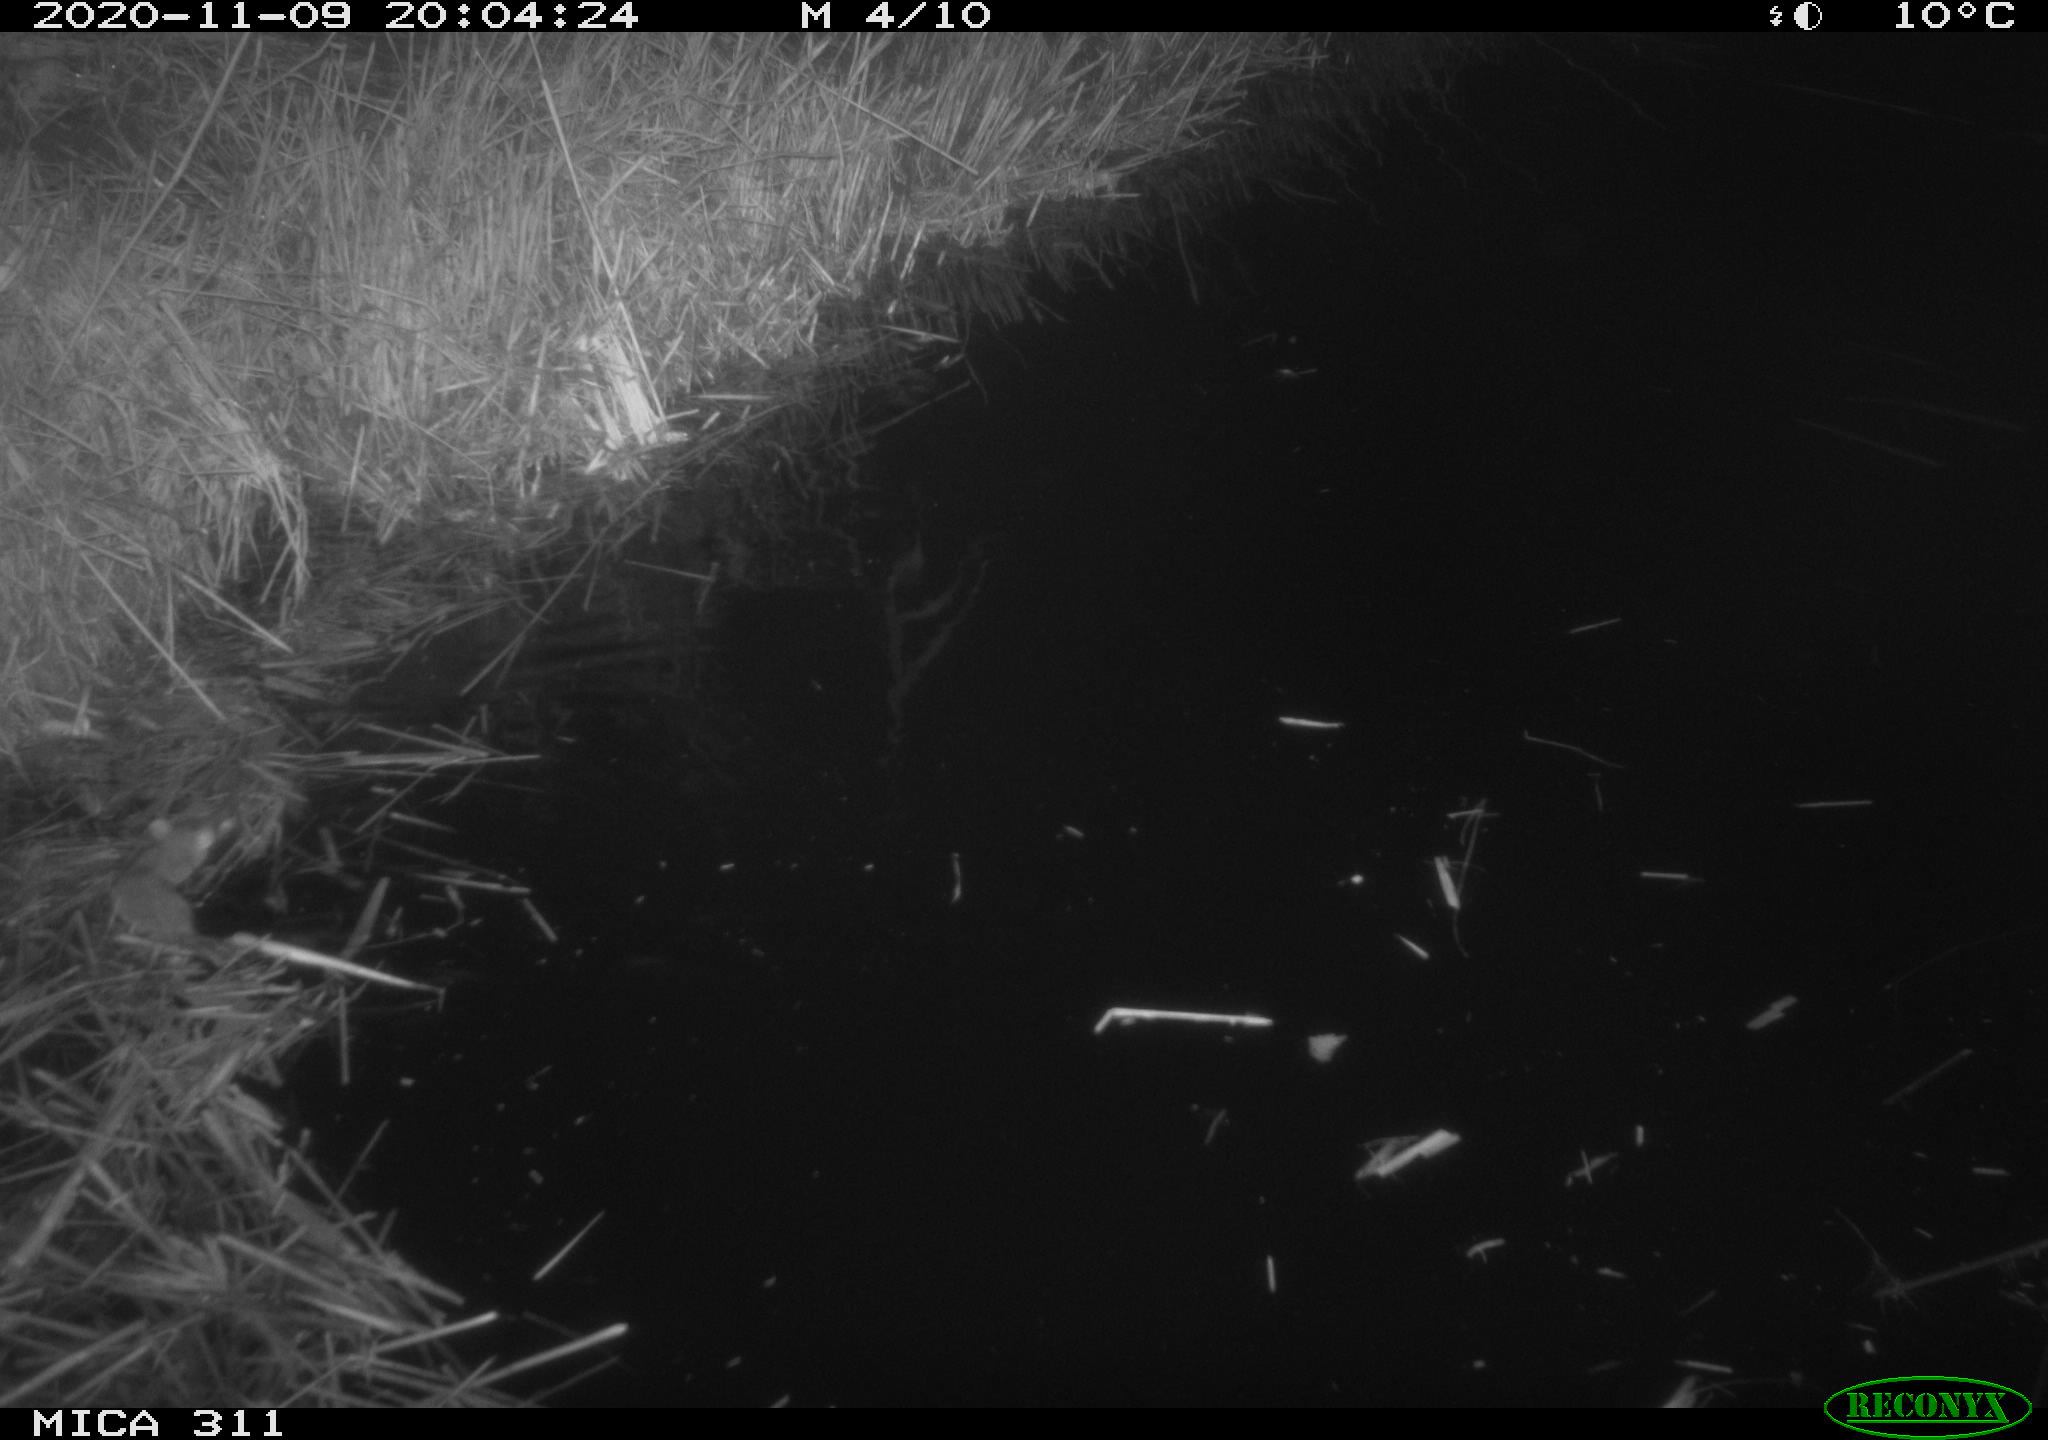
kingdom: Animalia
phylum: Chordata
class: Mammalia
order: Rodentia
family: Muridae
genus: Rattus
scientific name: Rattus norvegicus
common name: Brown rat
